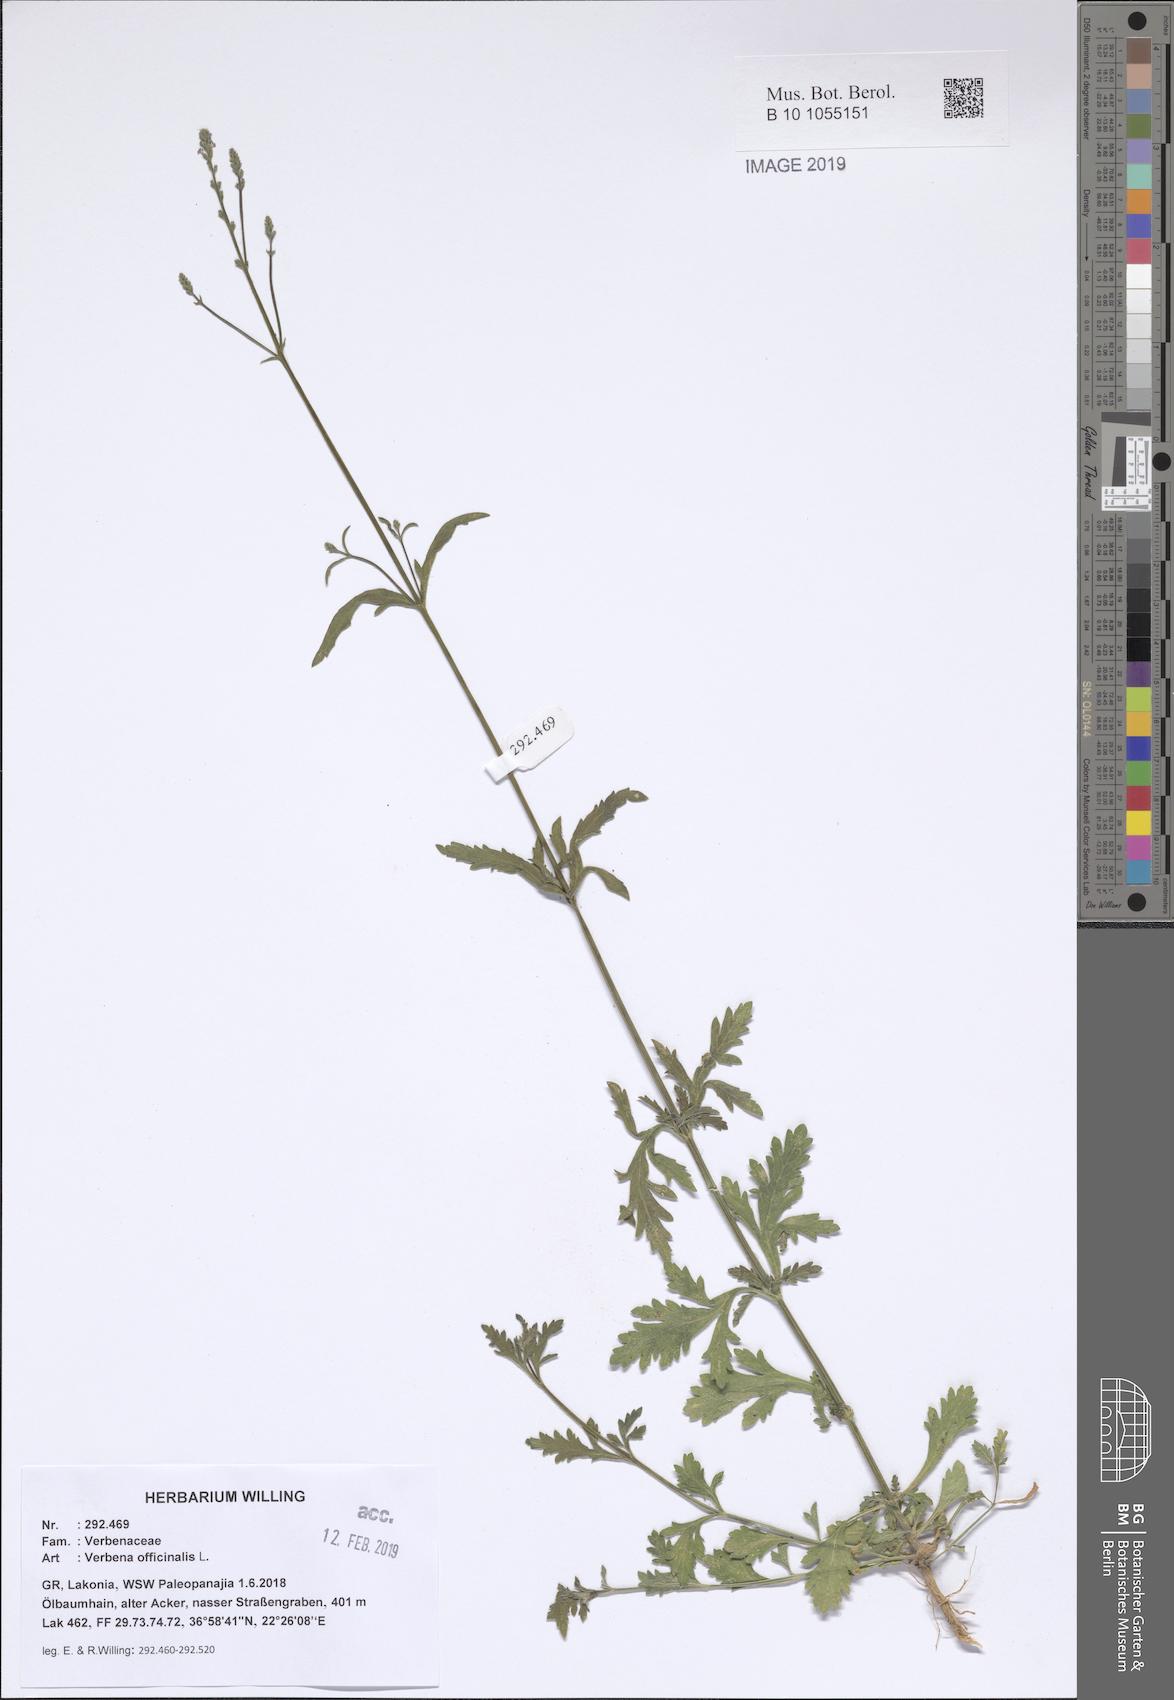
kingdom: Plantae
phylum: Tracheophyta
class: Magnoliopsida
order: Lamiales
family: Verbenaceae
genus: Verbena
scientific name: Verbena officinalis
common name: Vervain
